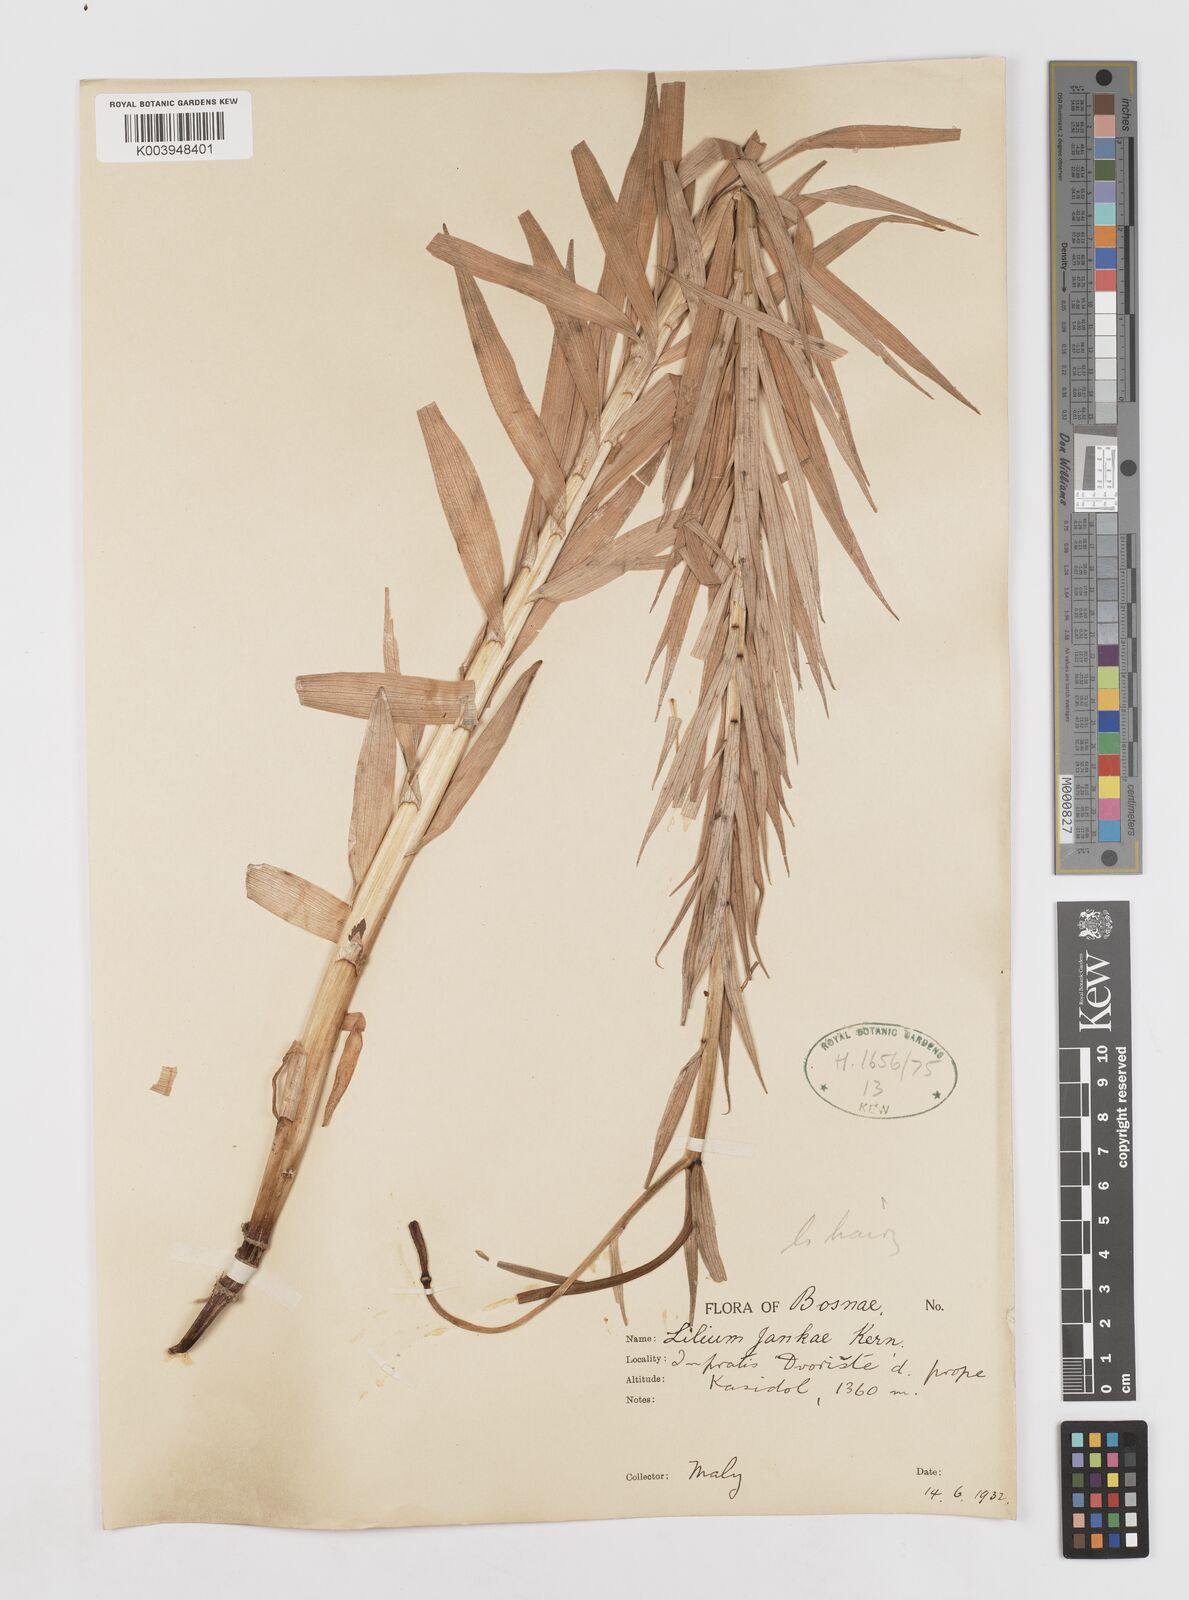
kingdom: Plantae
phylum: Tracheophyta
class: Liliopsida
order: Liliales
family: Liliaceae
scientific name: Liliaceae
